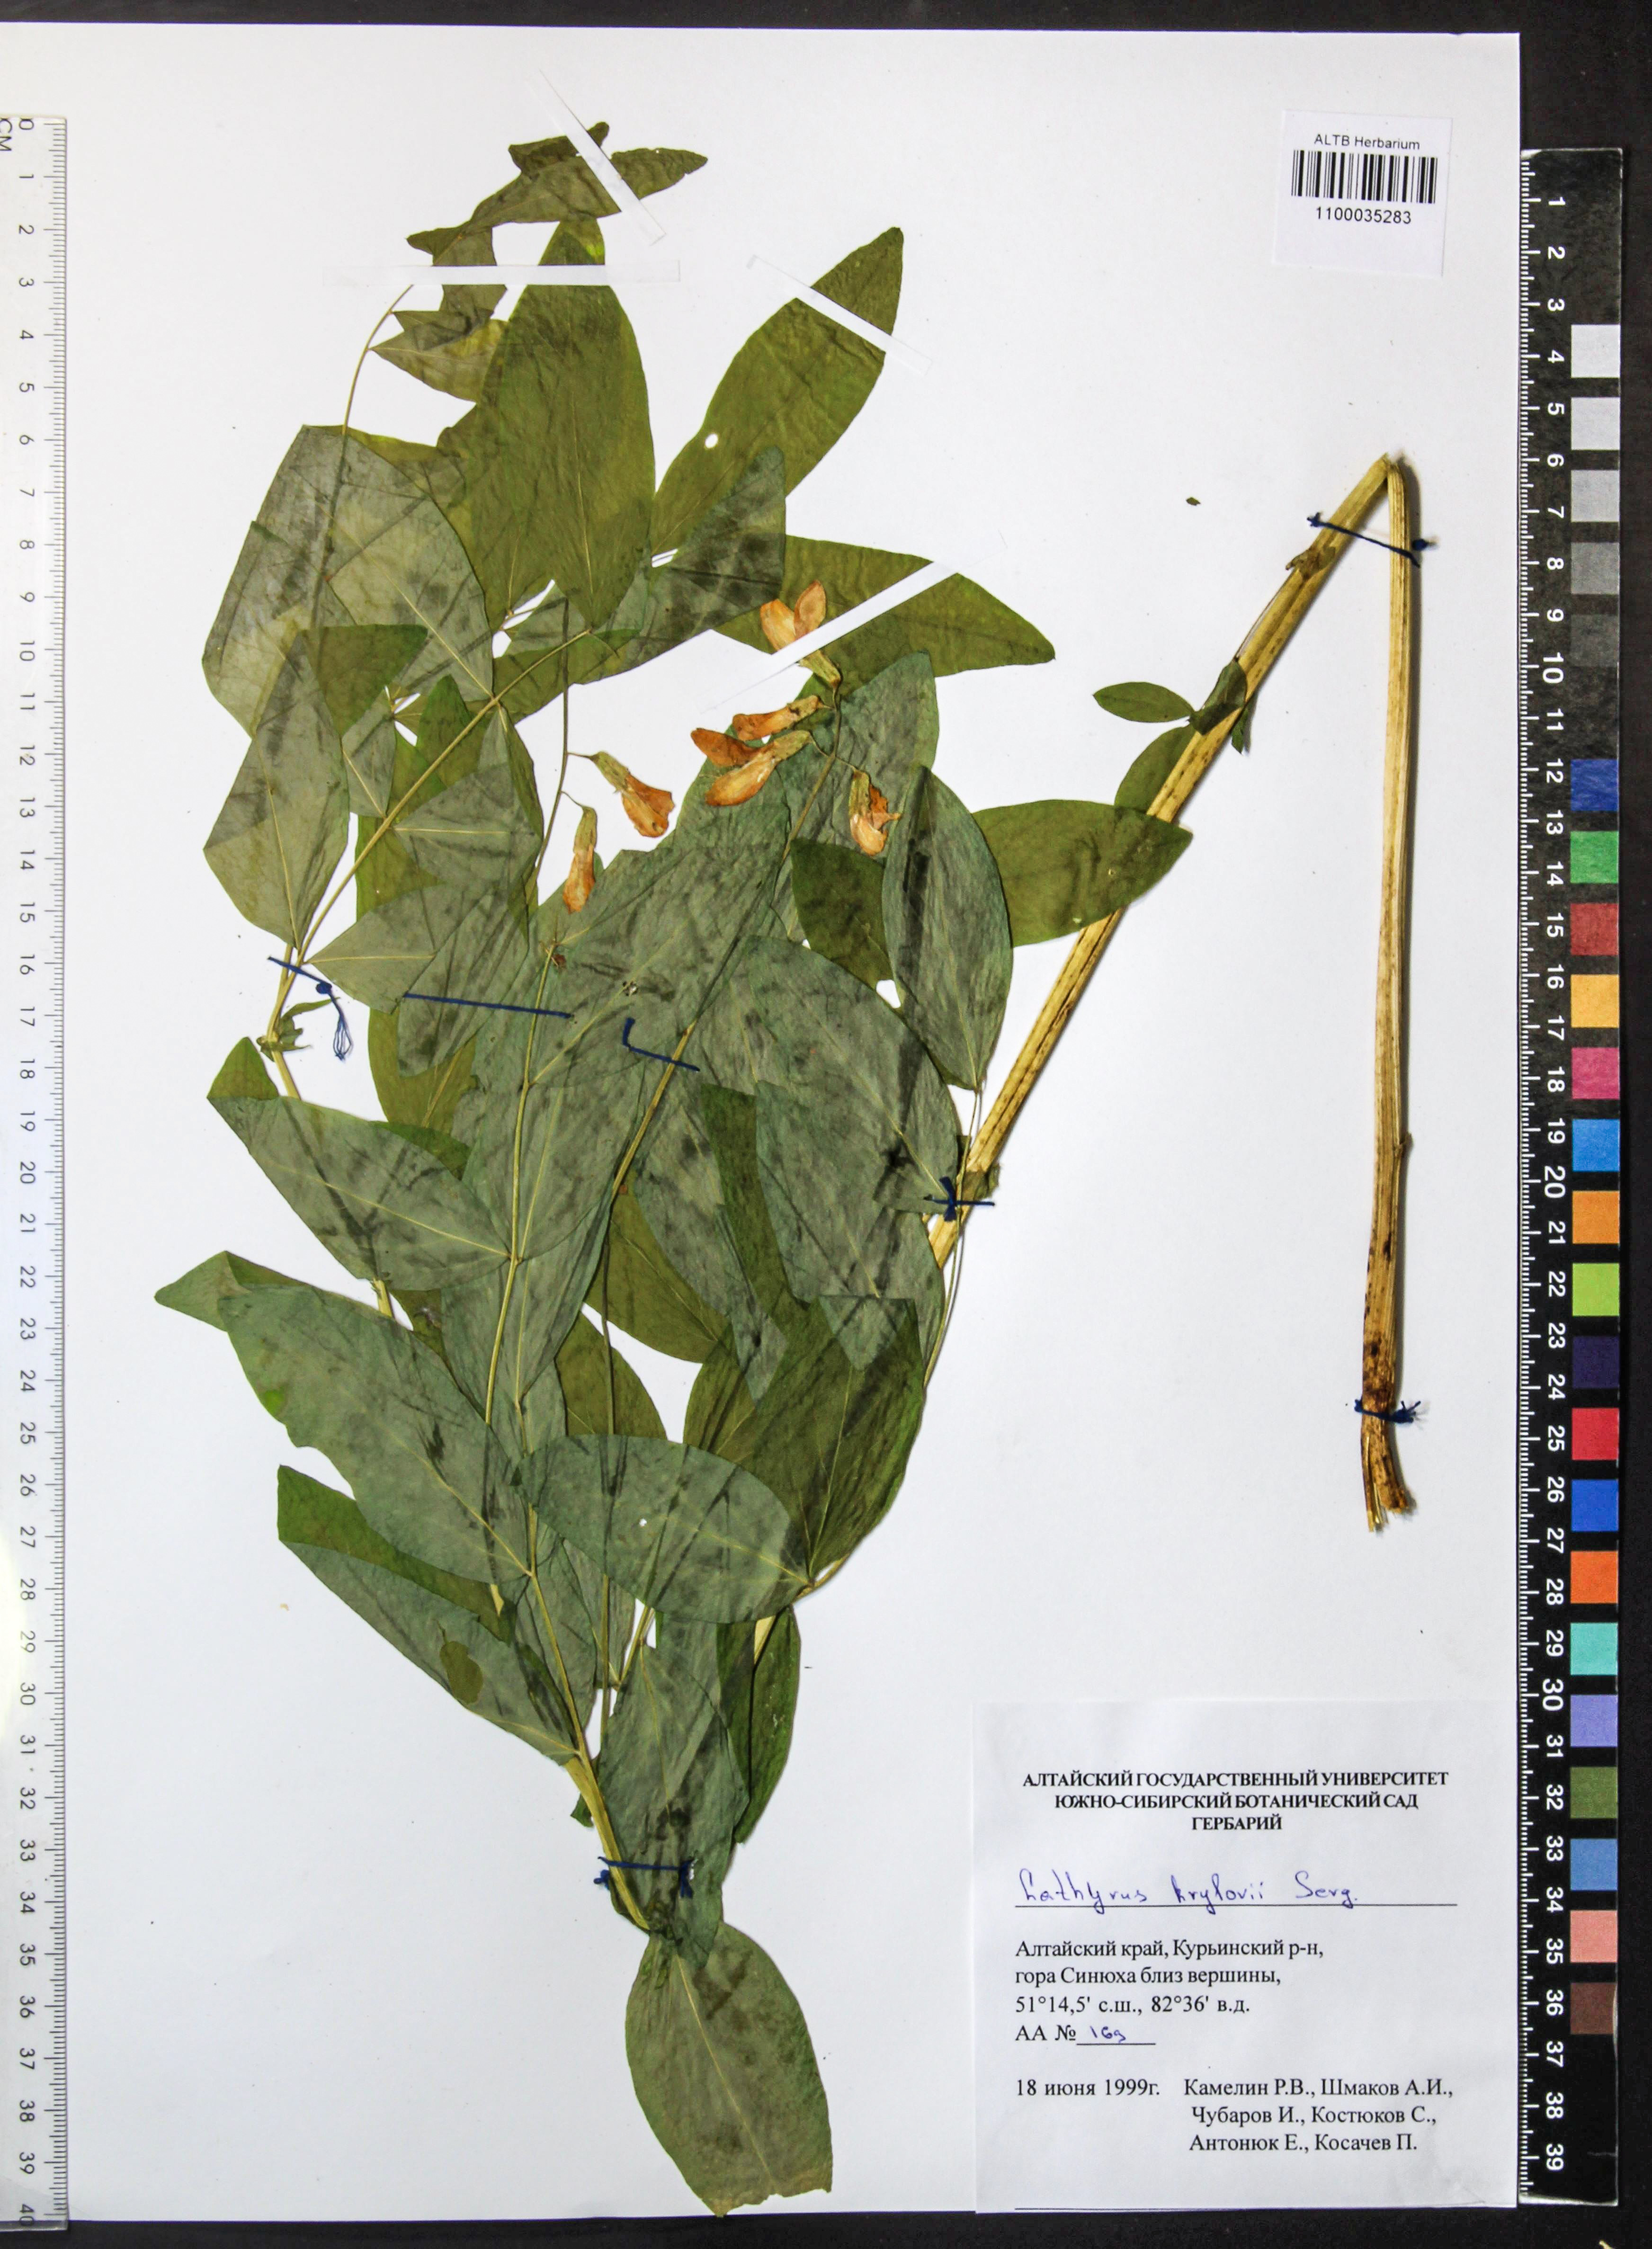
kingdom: Plantae
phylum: Tracheophyta
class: Magnoliopsida
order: Fabales
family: Fabaceae
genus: Lathyrus
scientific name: Lathyrus krylovii
